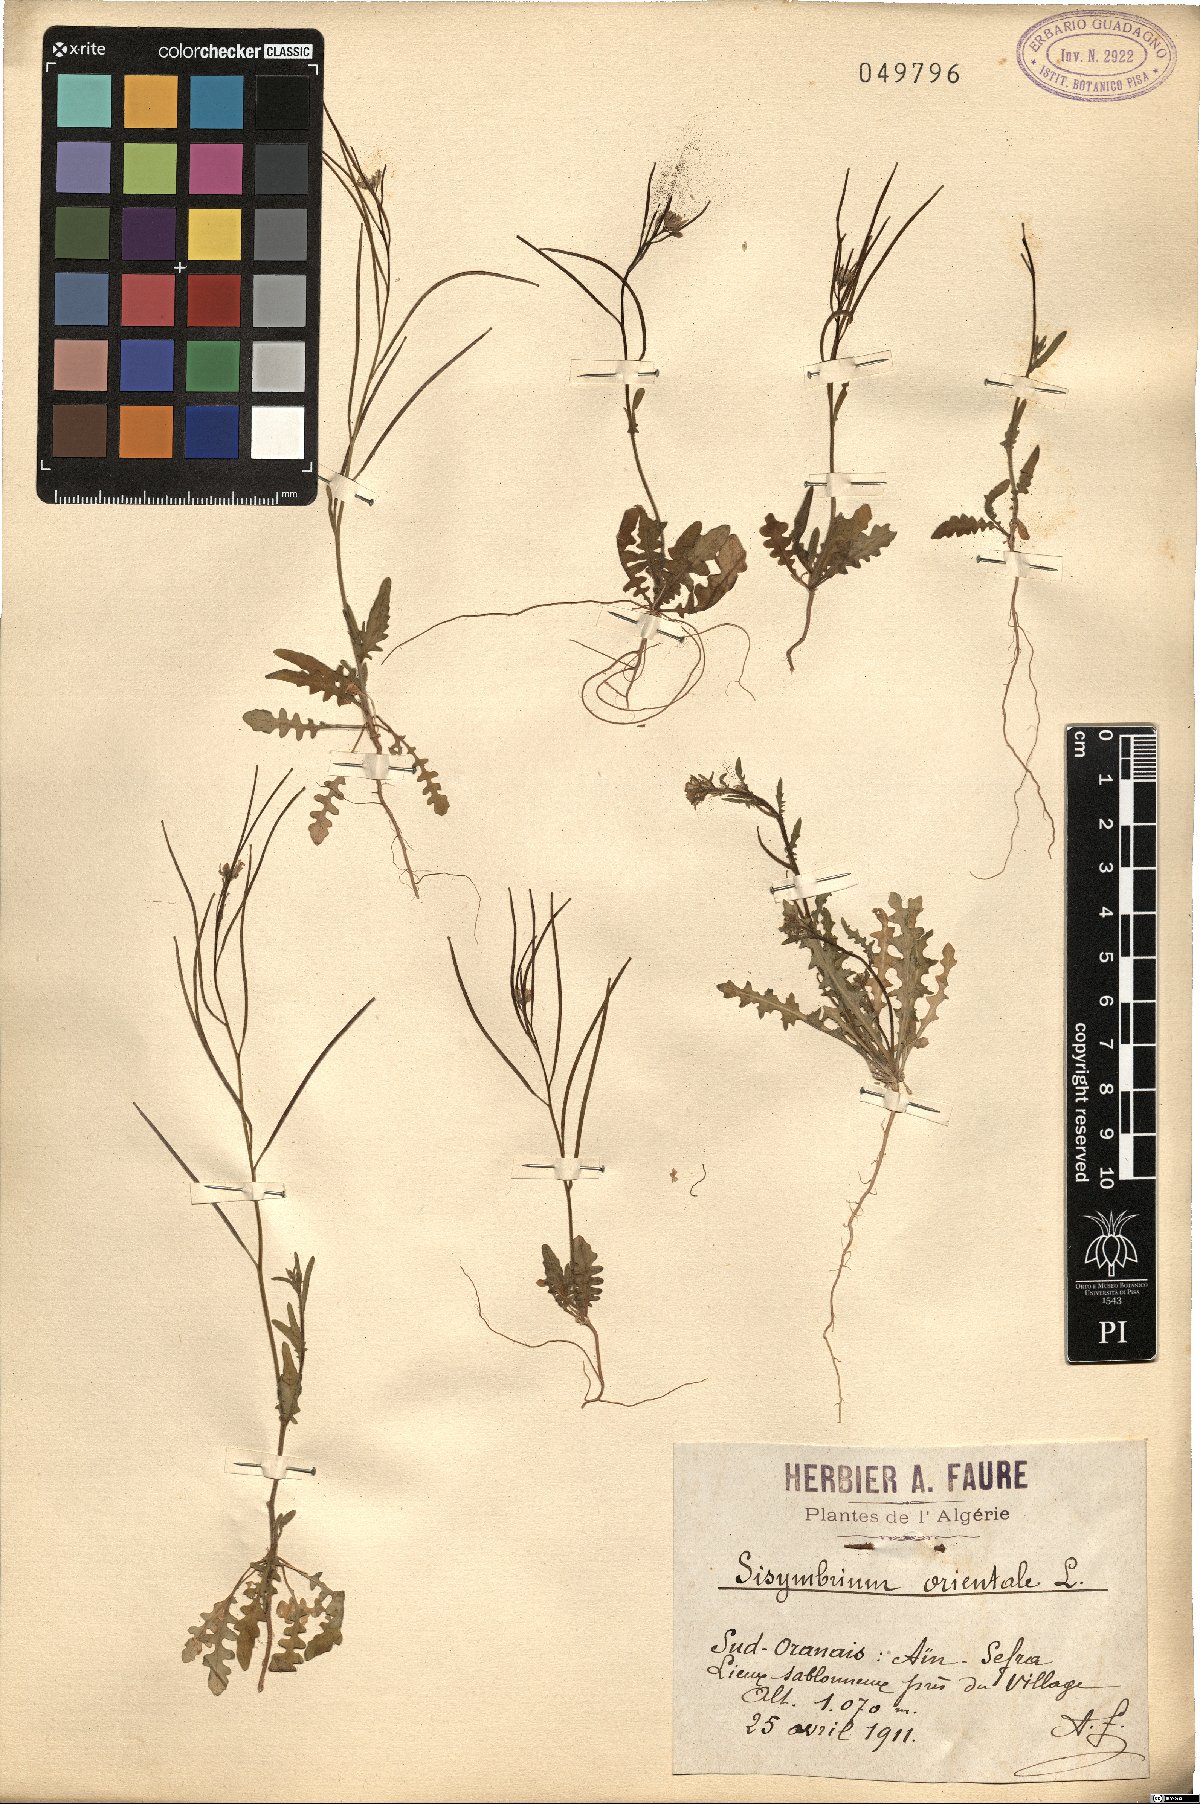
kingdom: Plantae
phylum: Tracheophyta
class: Magnoliopsida
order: Brassicales
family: Brassicaceae
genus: Sisymbrium
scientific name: Sisymbrium orientale
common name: Eastern rocket
